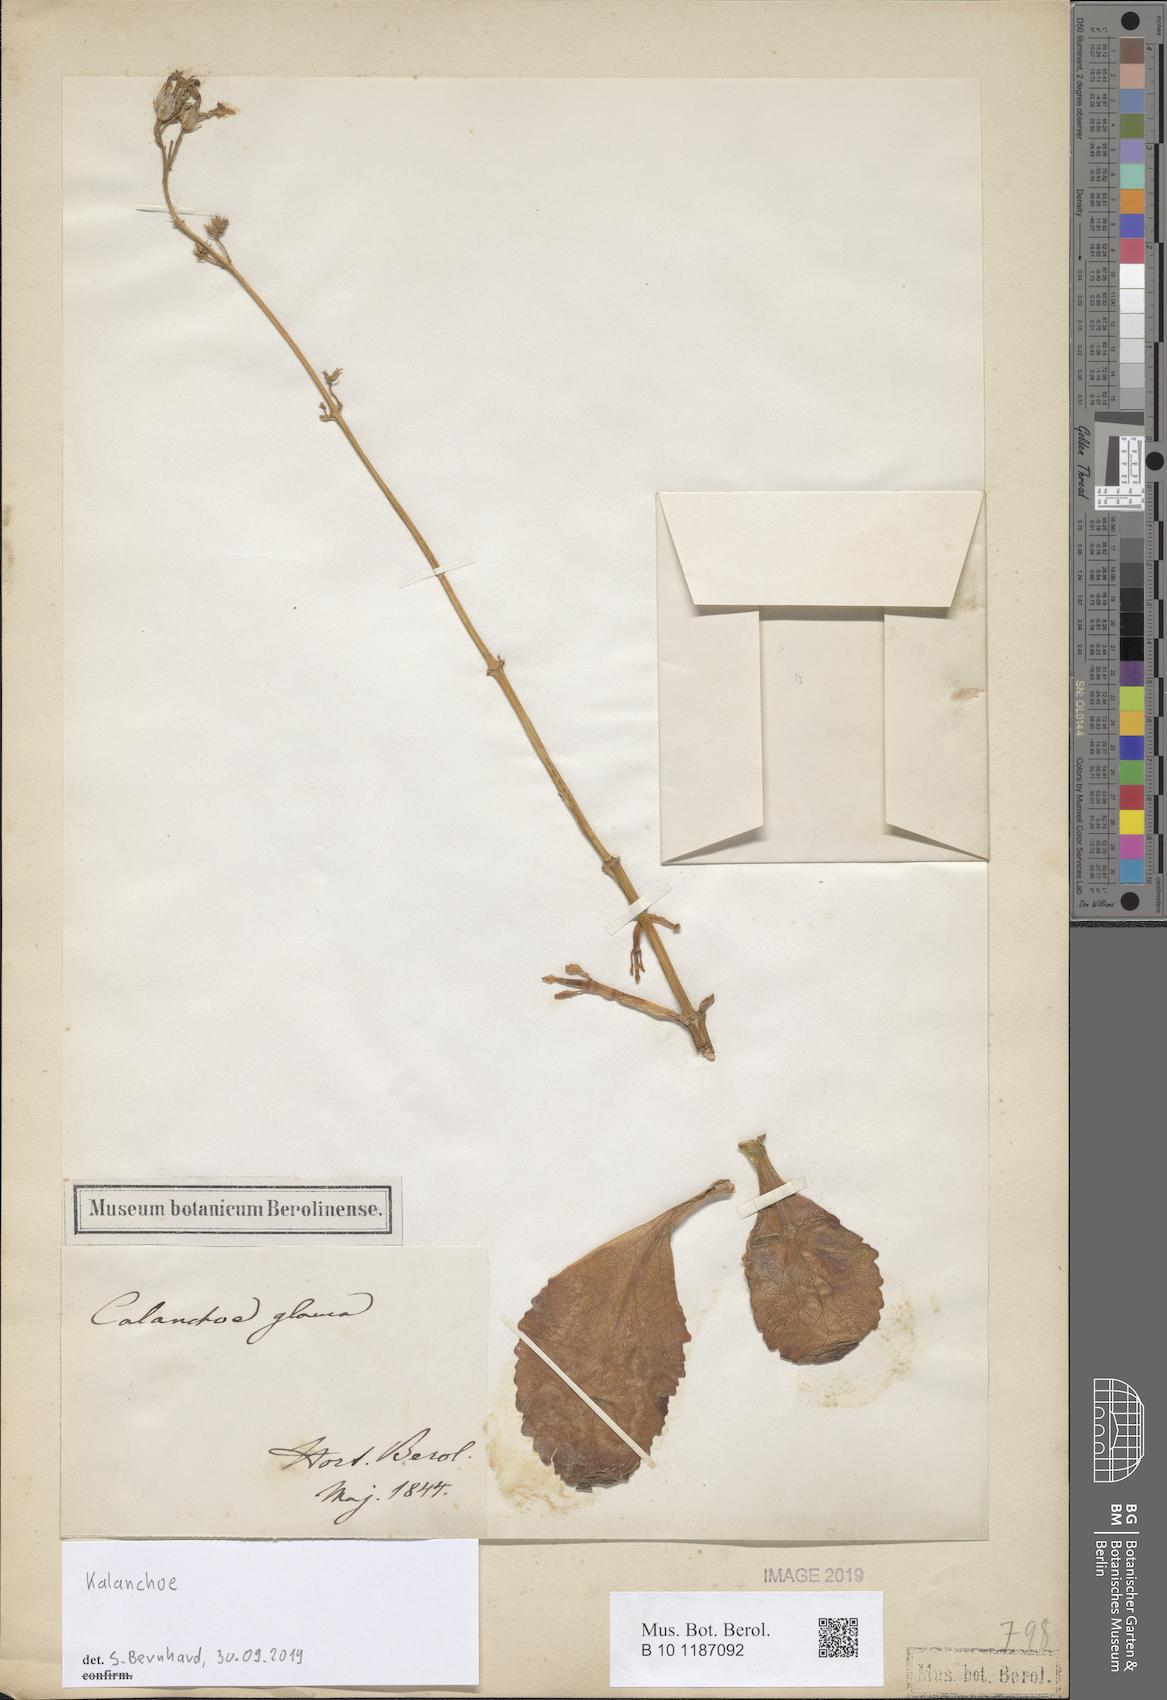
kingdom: Plantae
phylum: Tracheophyta
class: Magnoliopsida
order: Saxifragales
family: Crassulaceae
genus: Kalanchoe
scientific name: Kalanchoe
